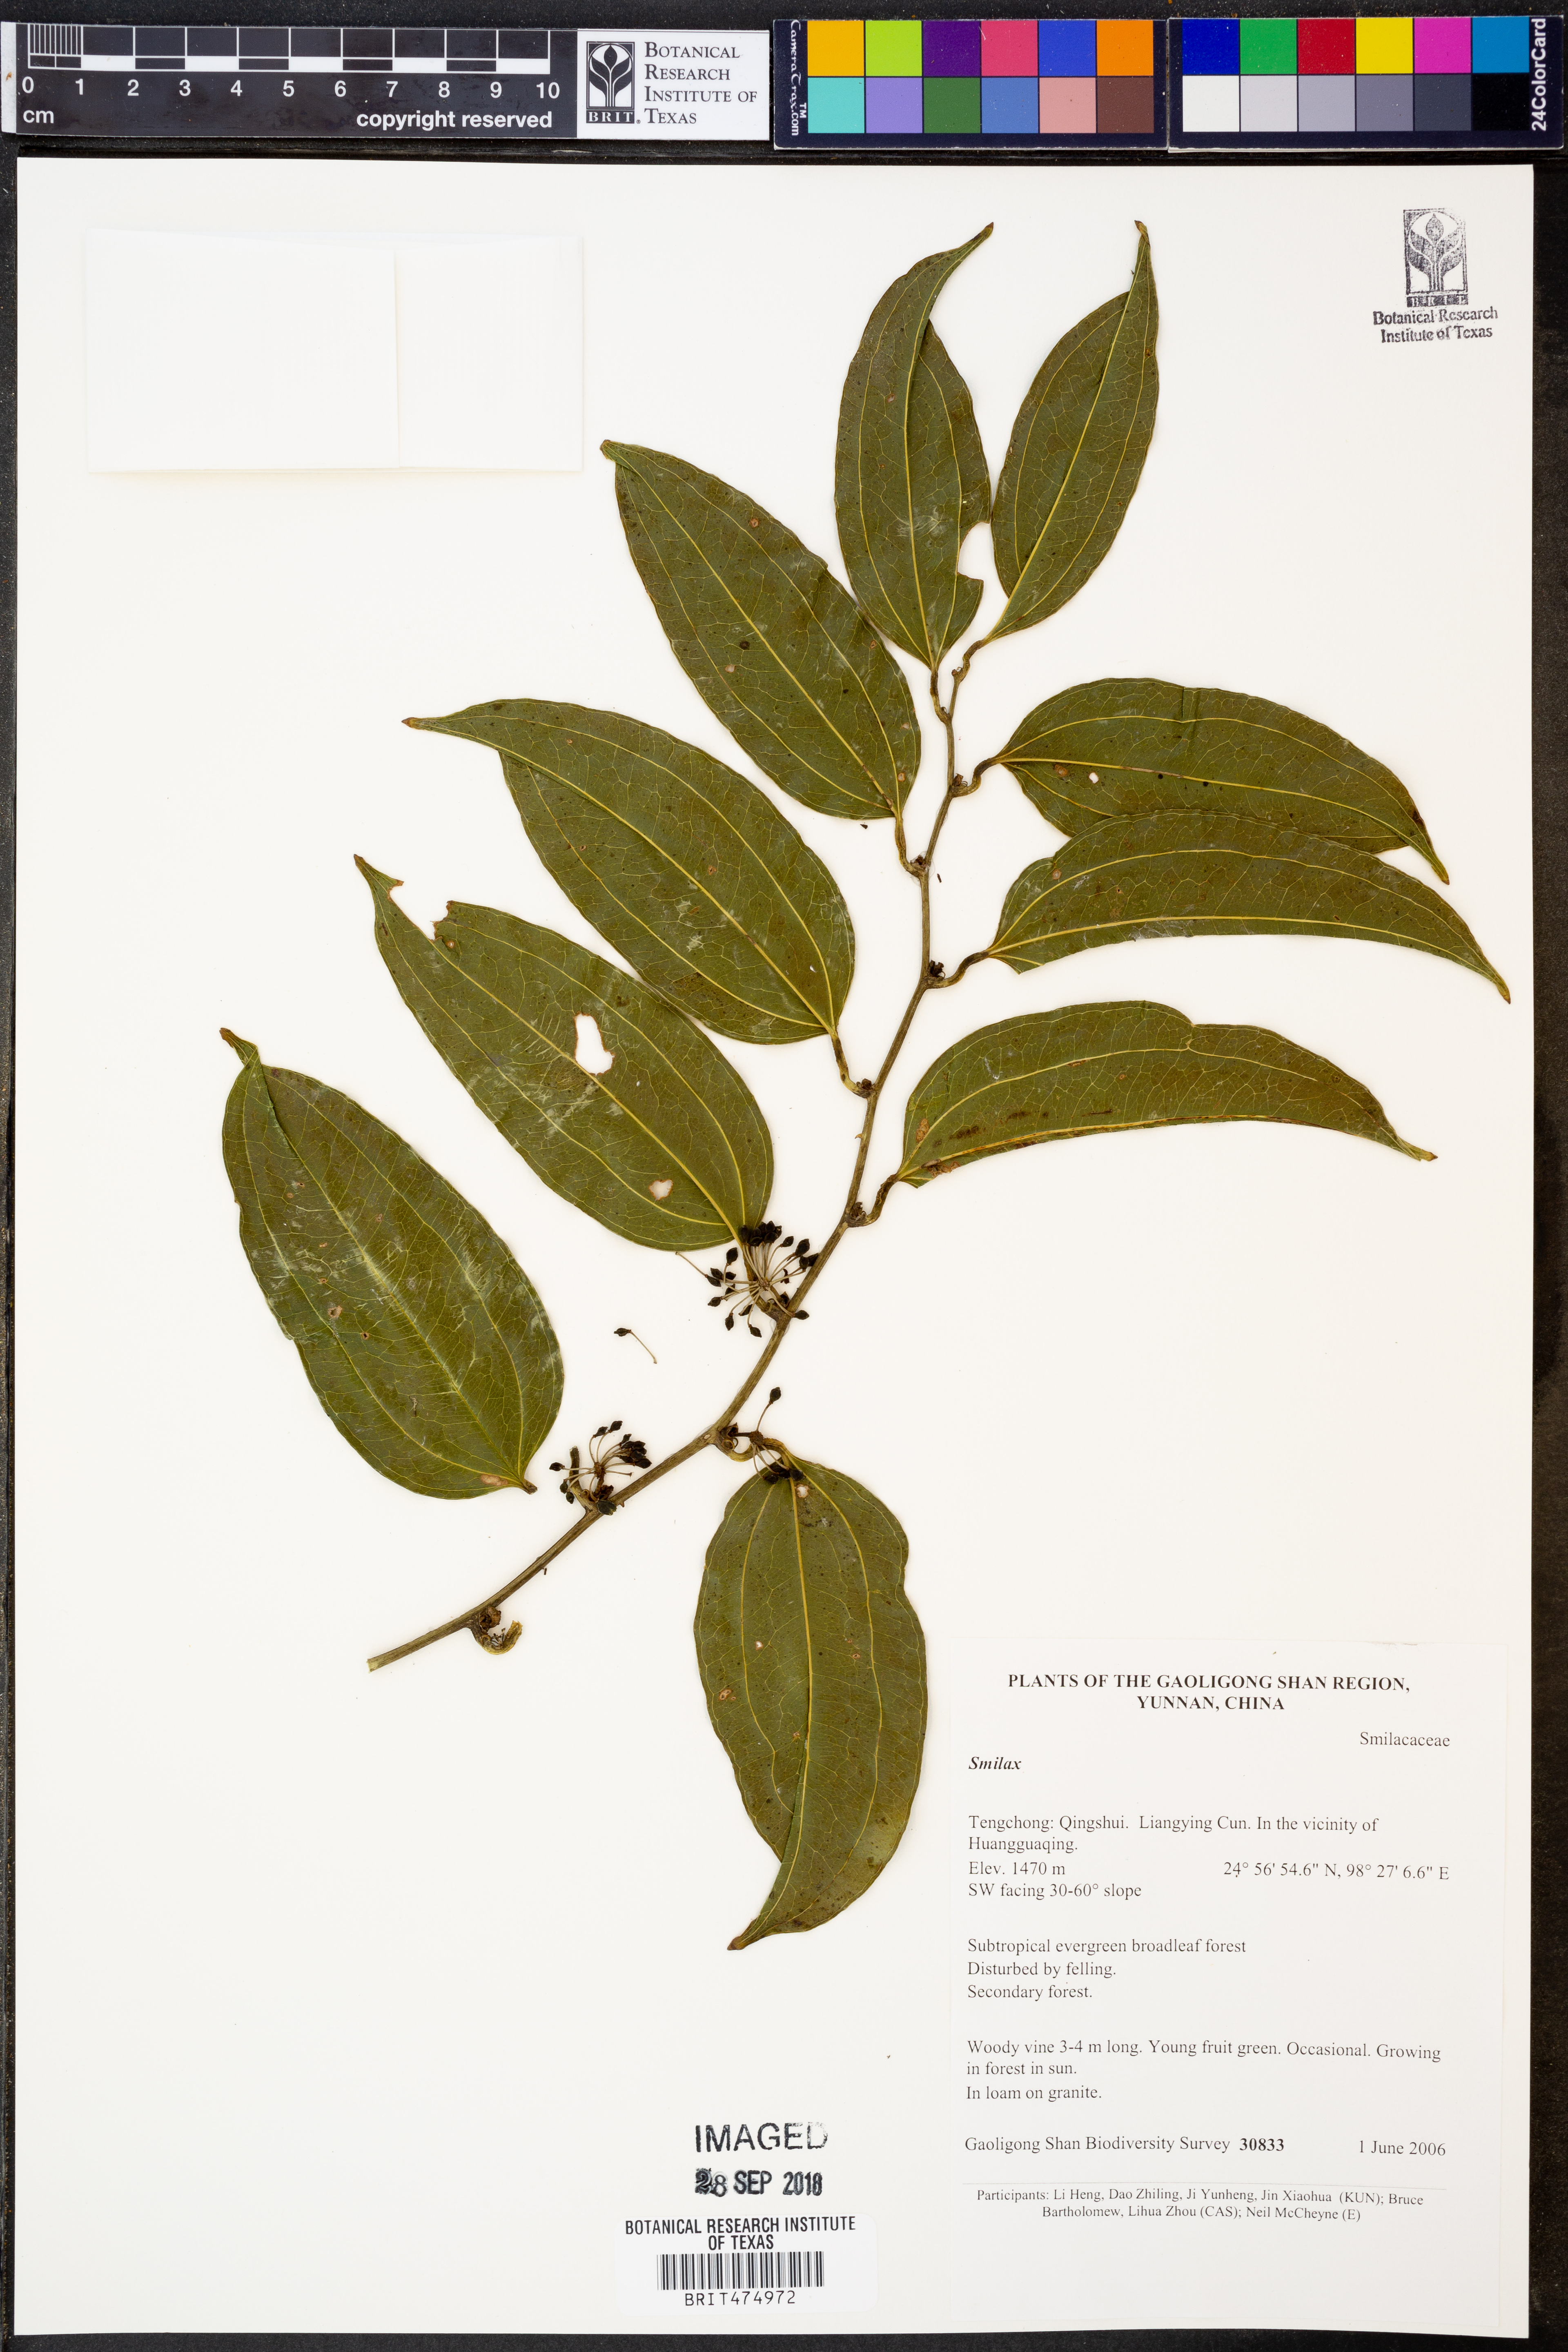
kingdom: Plantae
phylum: Tracheophyta
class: Liliopsida
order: Liliales
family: Smilacaceae
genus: Smilax
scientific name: Smilax
